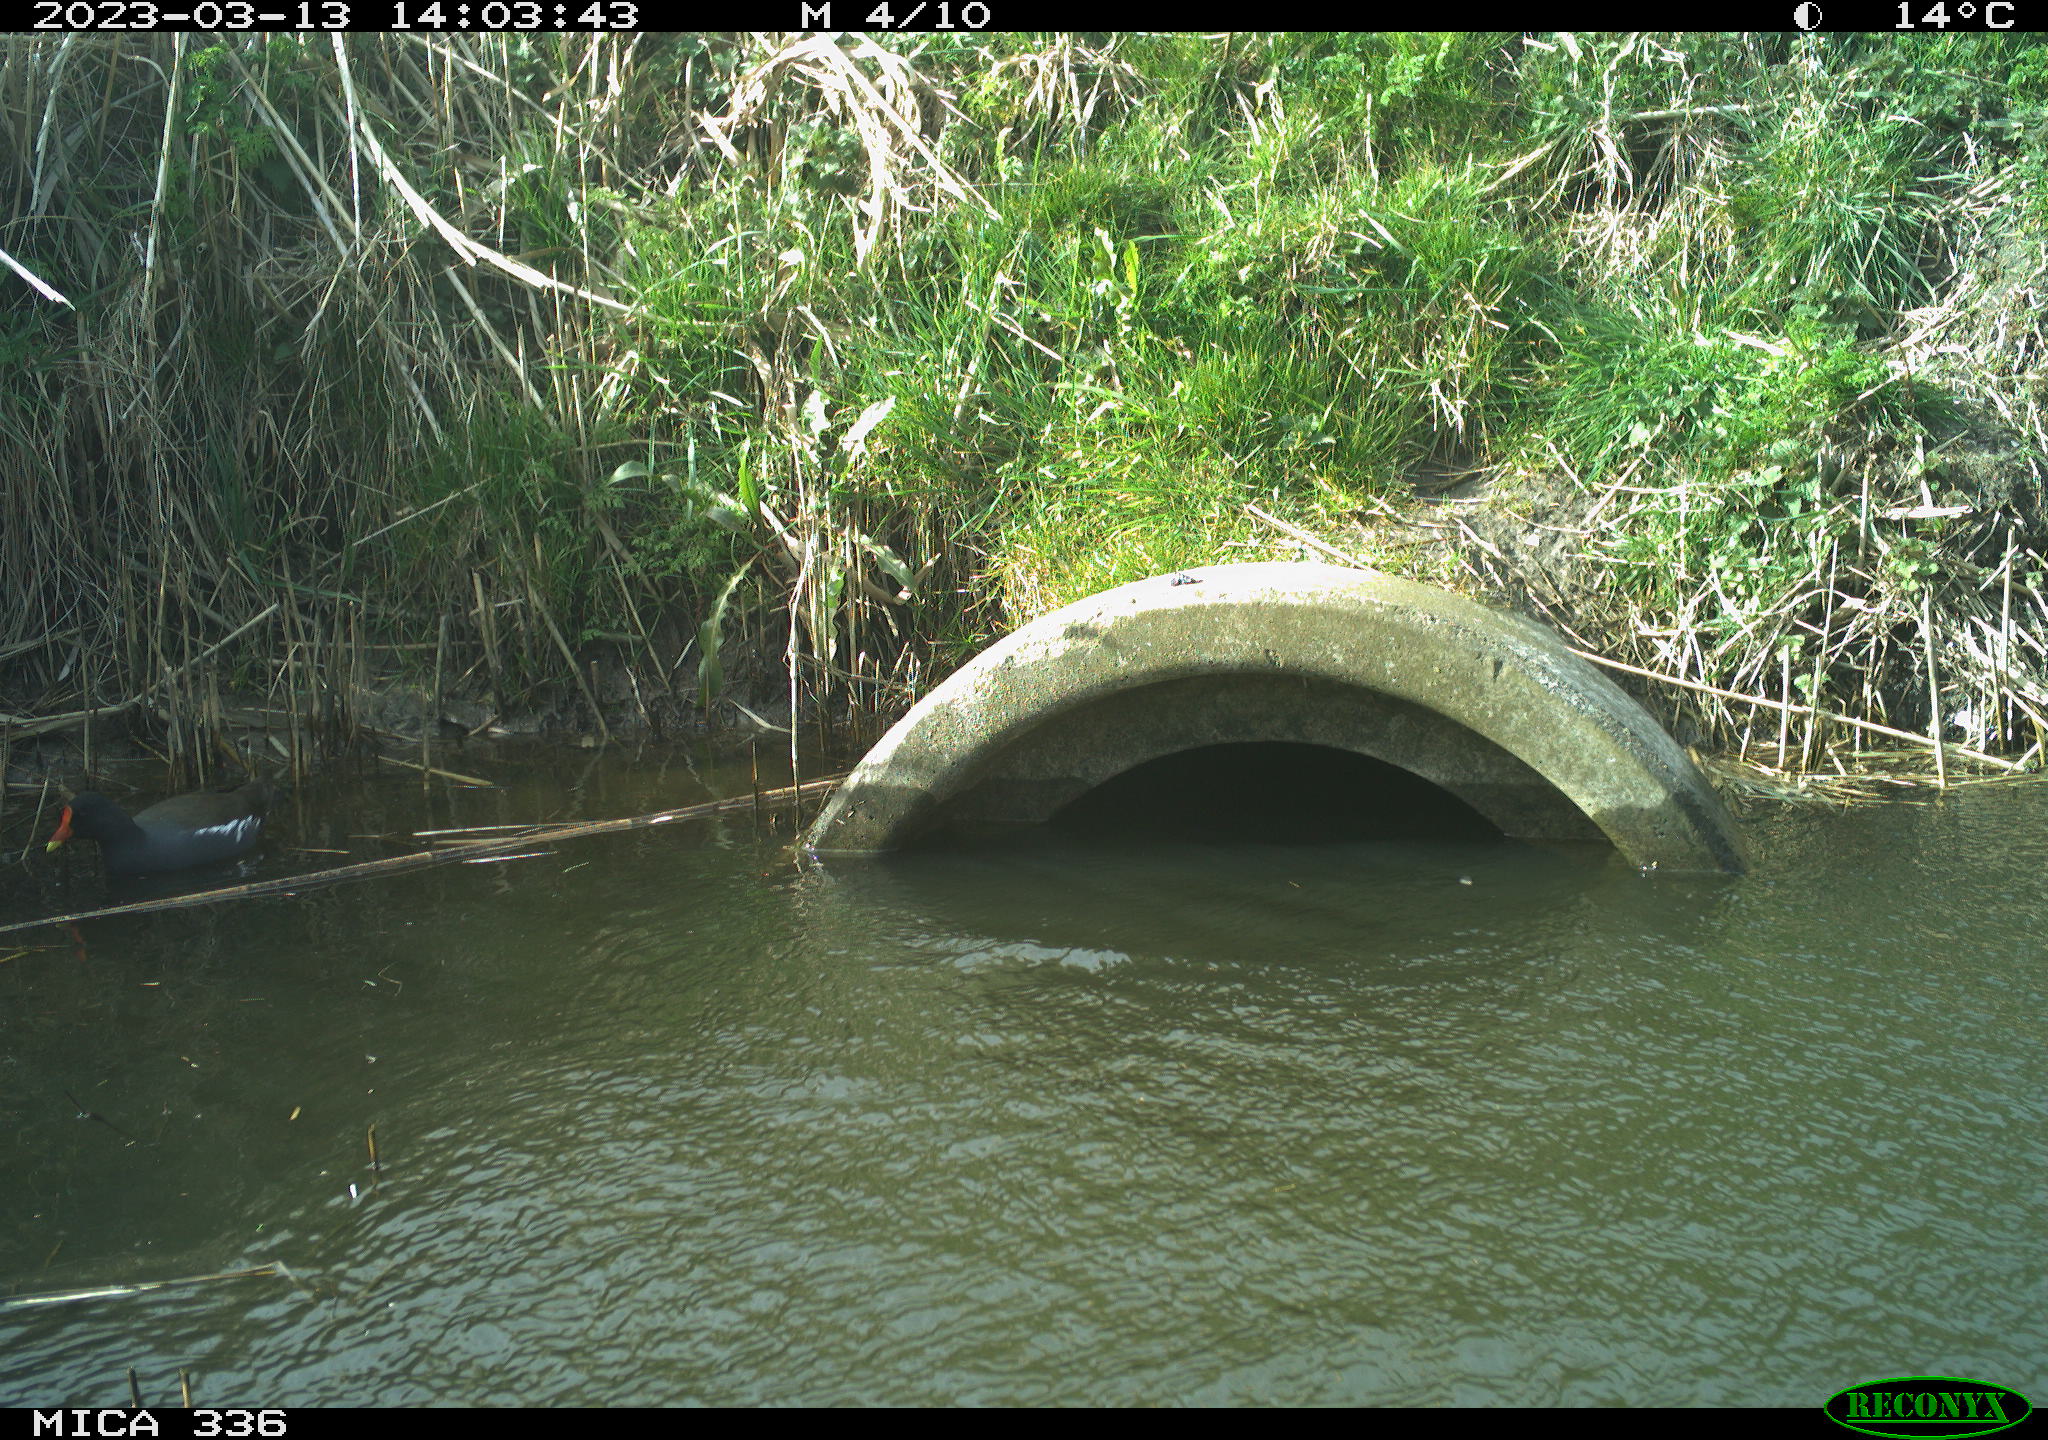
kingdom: Animalia
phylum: Chordata
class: Aves
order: Gruiformes
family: Rallidae
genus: Gallinula
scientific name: Gallinula chloropus
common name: Common moorhen
